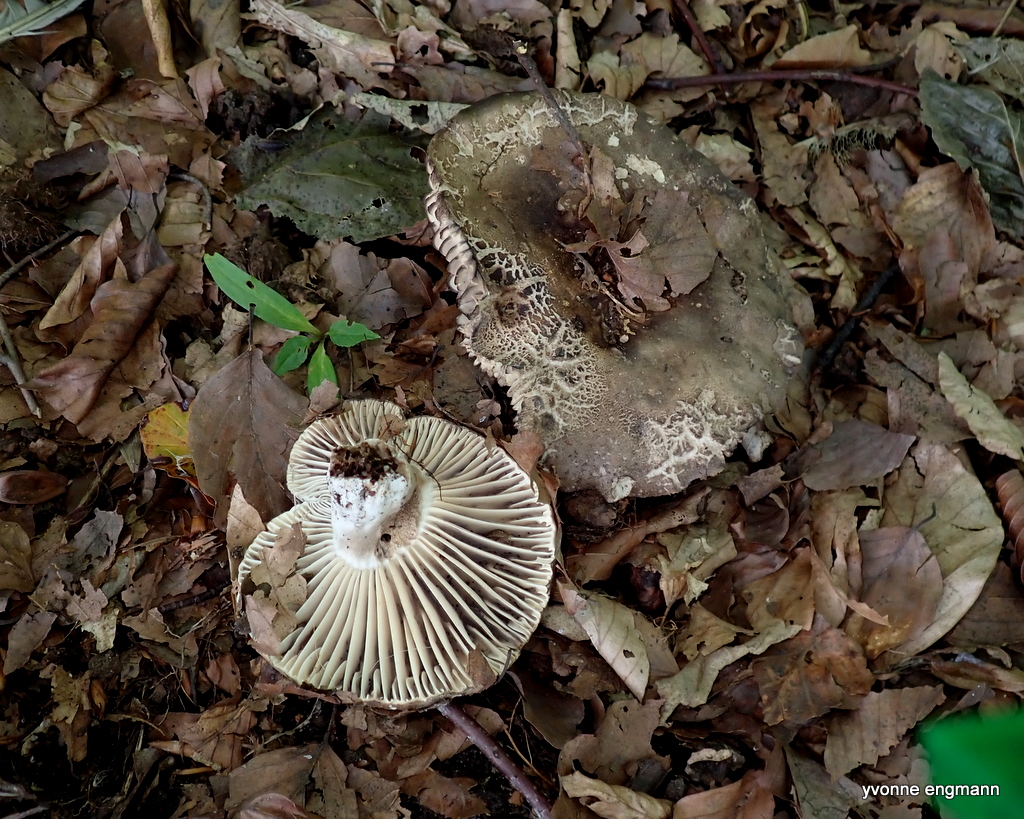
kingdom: Fungi
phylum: Basidiomycota
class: Agaricomycetes
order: Russulales
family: Russulaceae
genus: Russula
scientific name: Russula adusta
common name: sværtende skørhat
